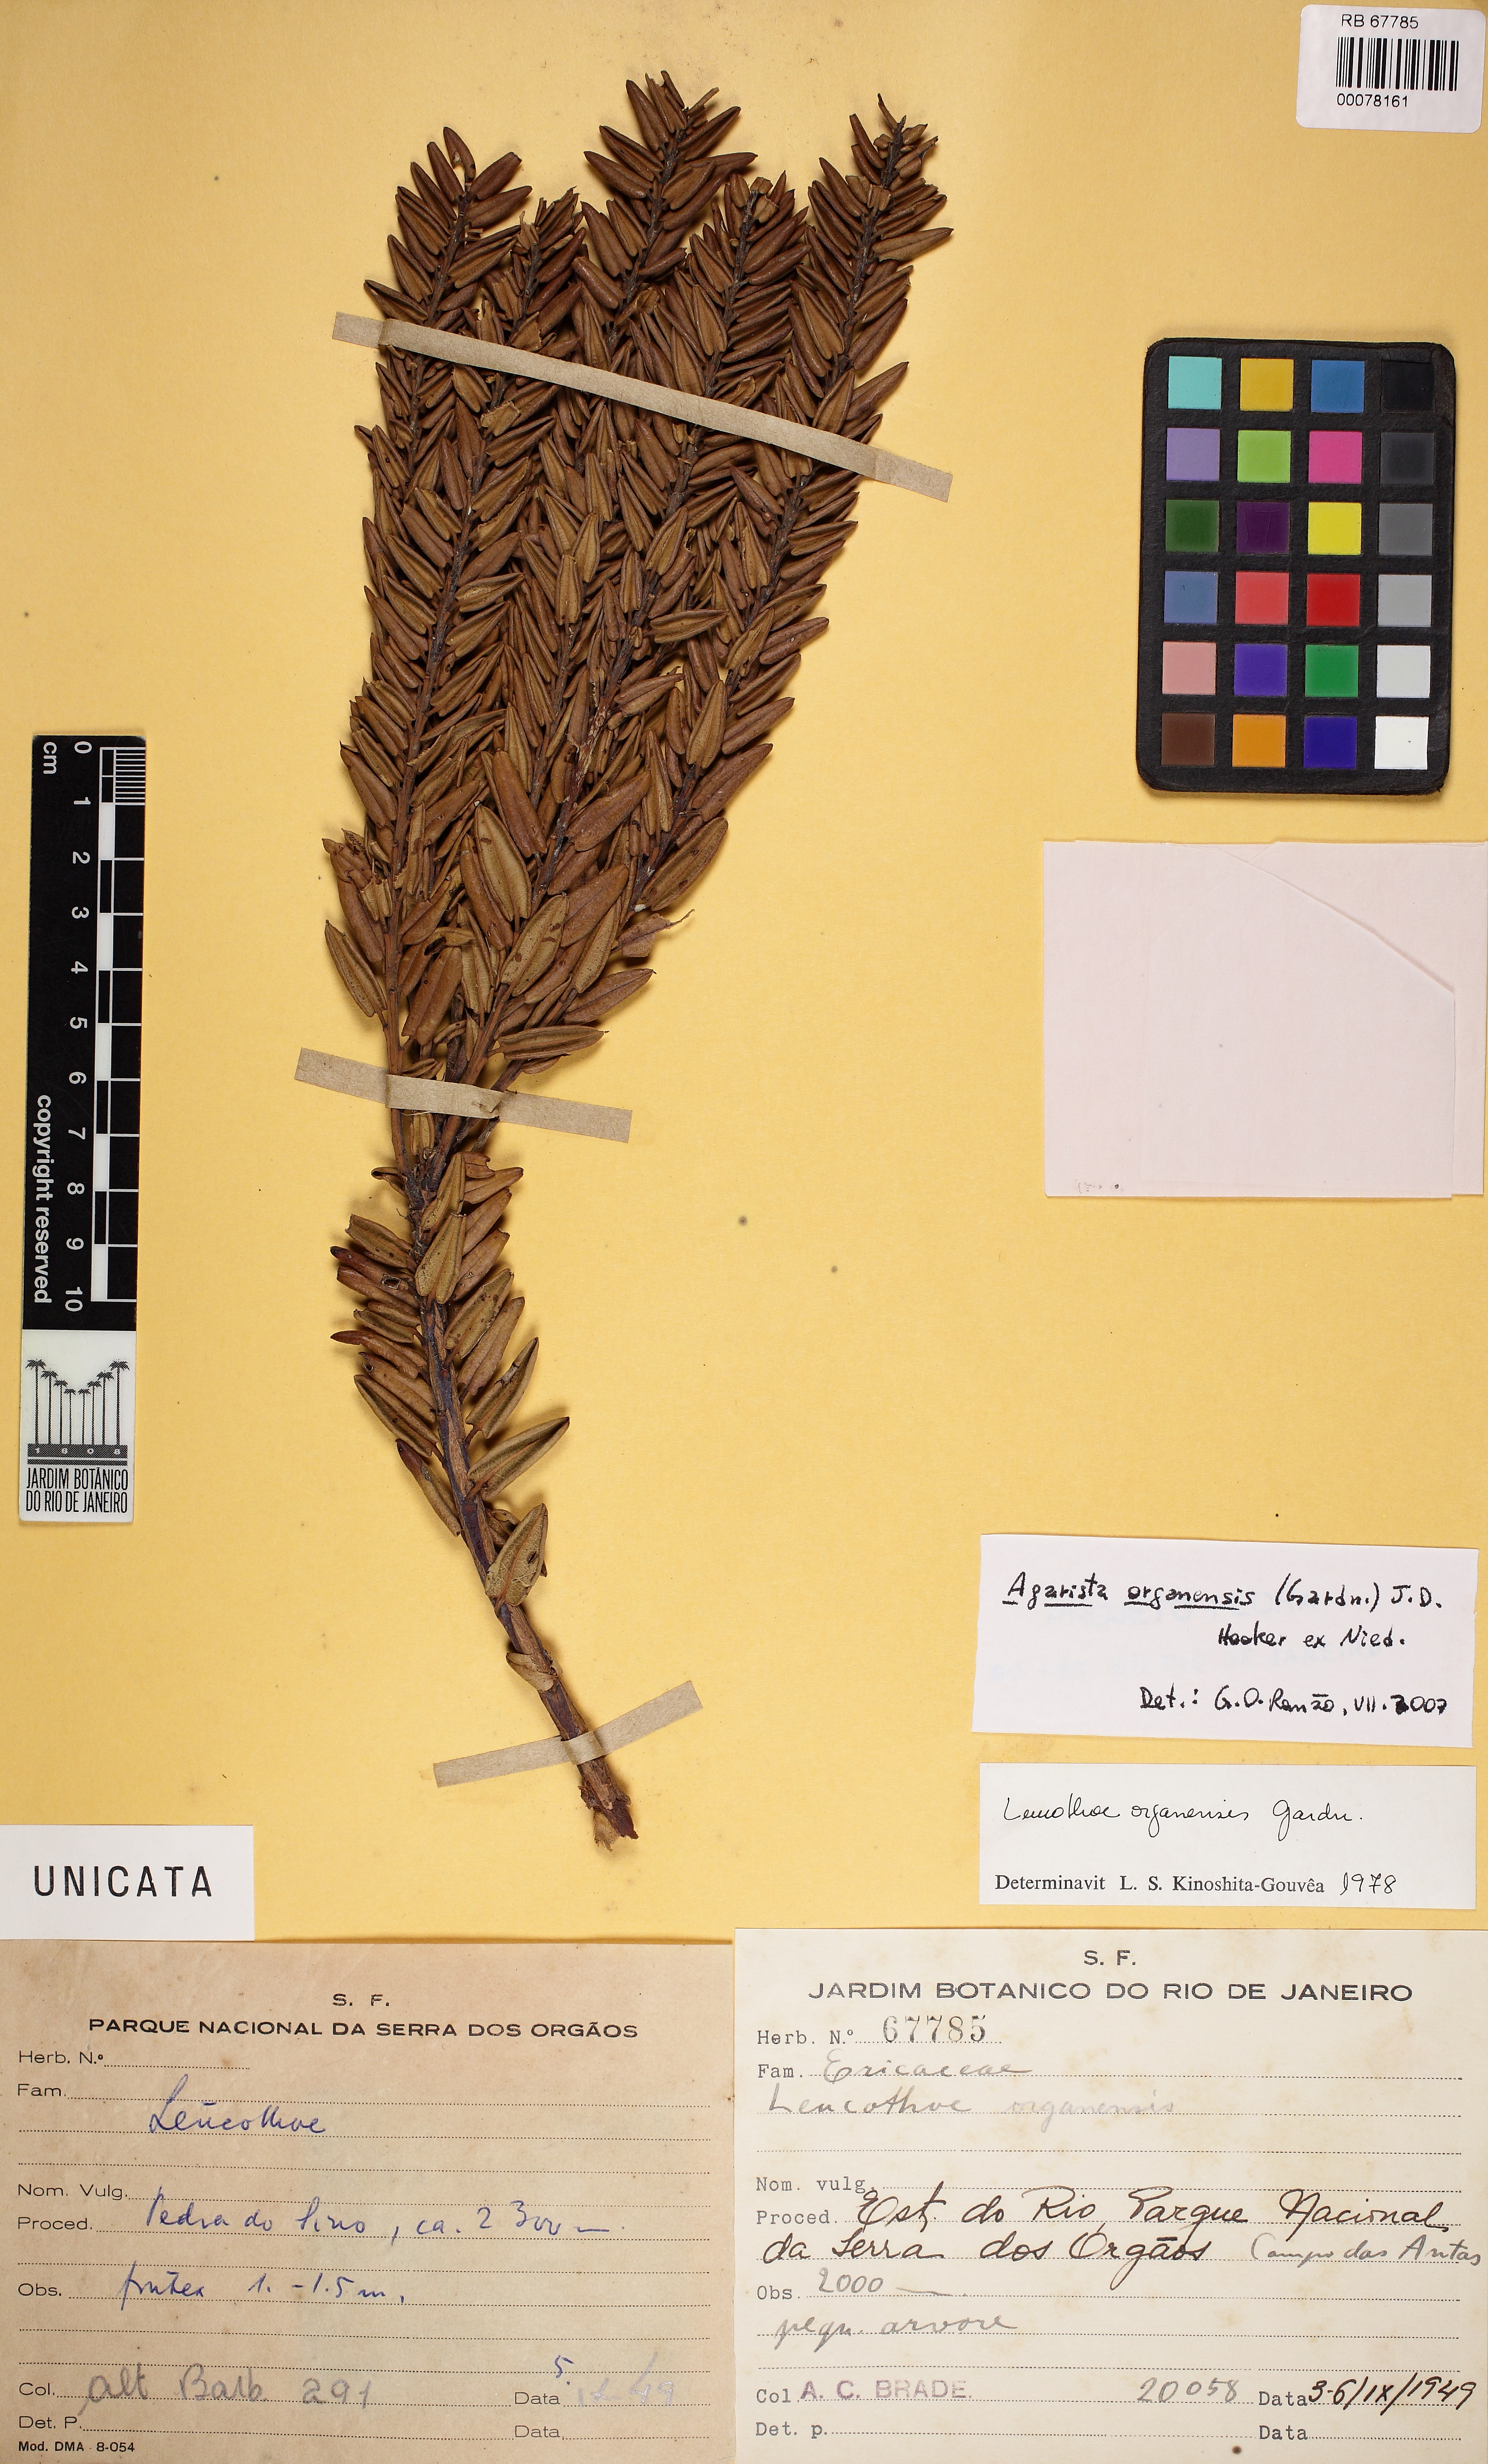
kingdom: Plantae
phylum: Tracheophyta
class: Magnoliopsida
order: Ericales
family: Ericaceae
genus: Agarista
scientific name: Agarista organensis
